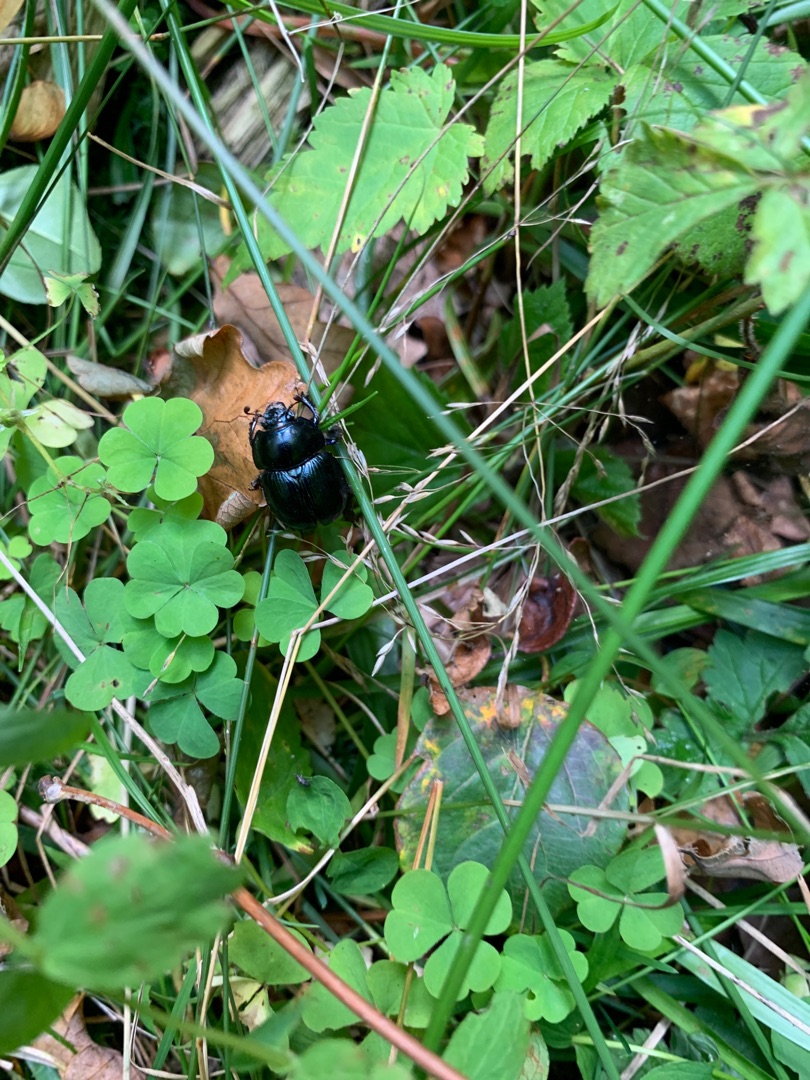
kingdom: Animalia
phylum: Arthropoda
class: Insecta
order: Coleoptera
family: Geotrupidae
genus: Anoplotrupes
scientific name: Anoplotrupes stercorosus
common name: Skovskarnbasse
